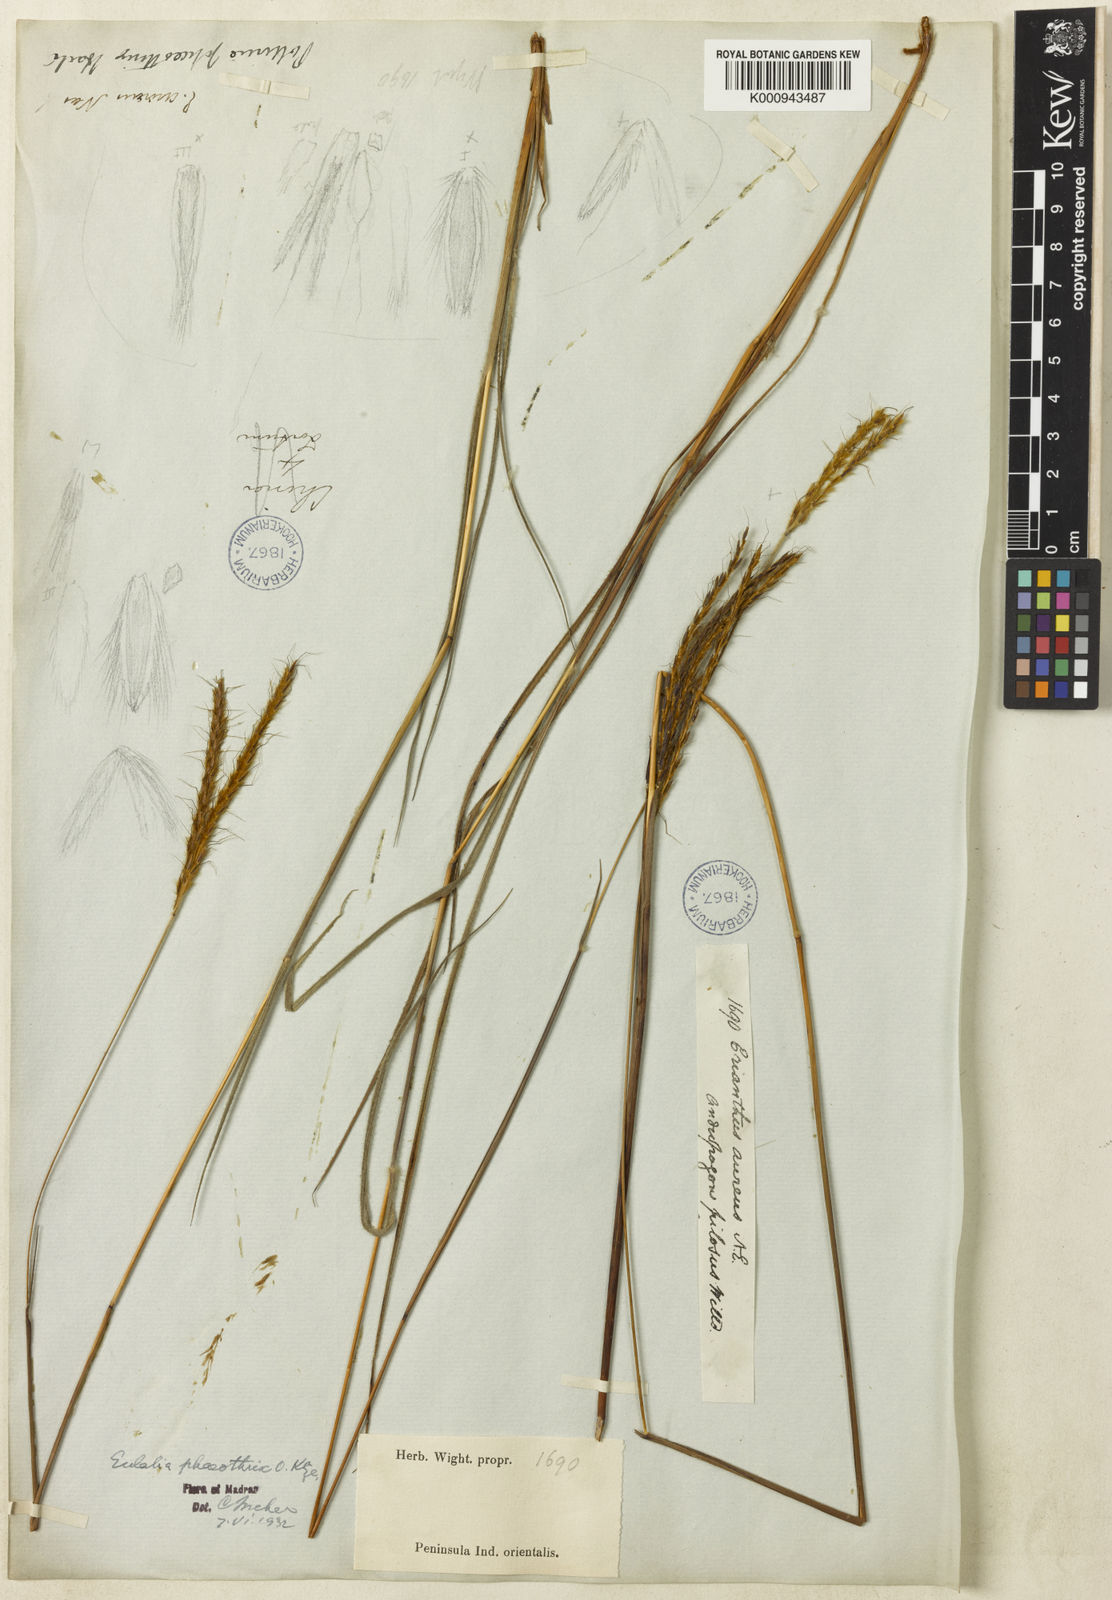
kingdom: Plantae
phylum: Tracheophyta
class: Liliopsida
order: Poales
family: Poaceae
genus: Eulalia
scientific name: Eulalia phaeothrix
